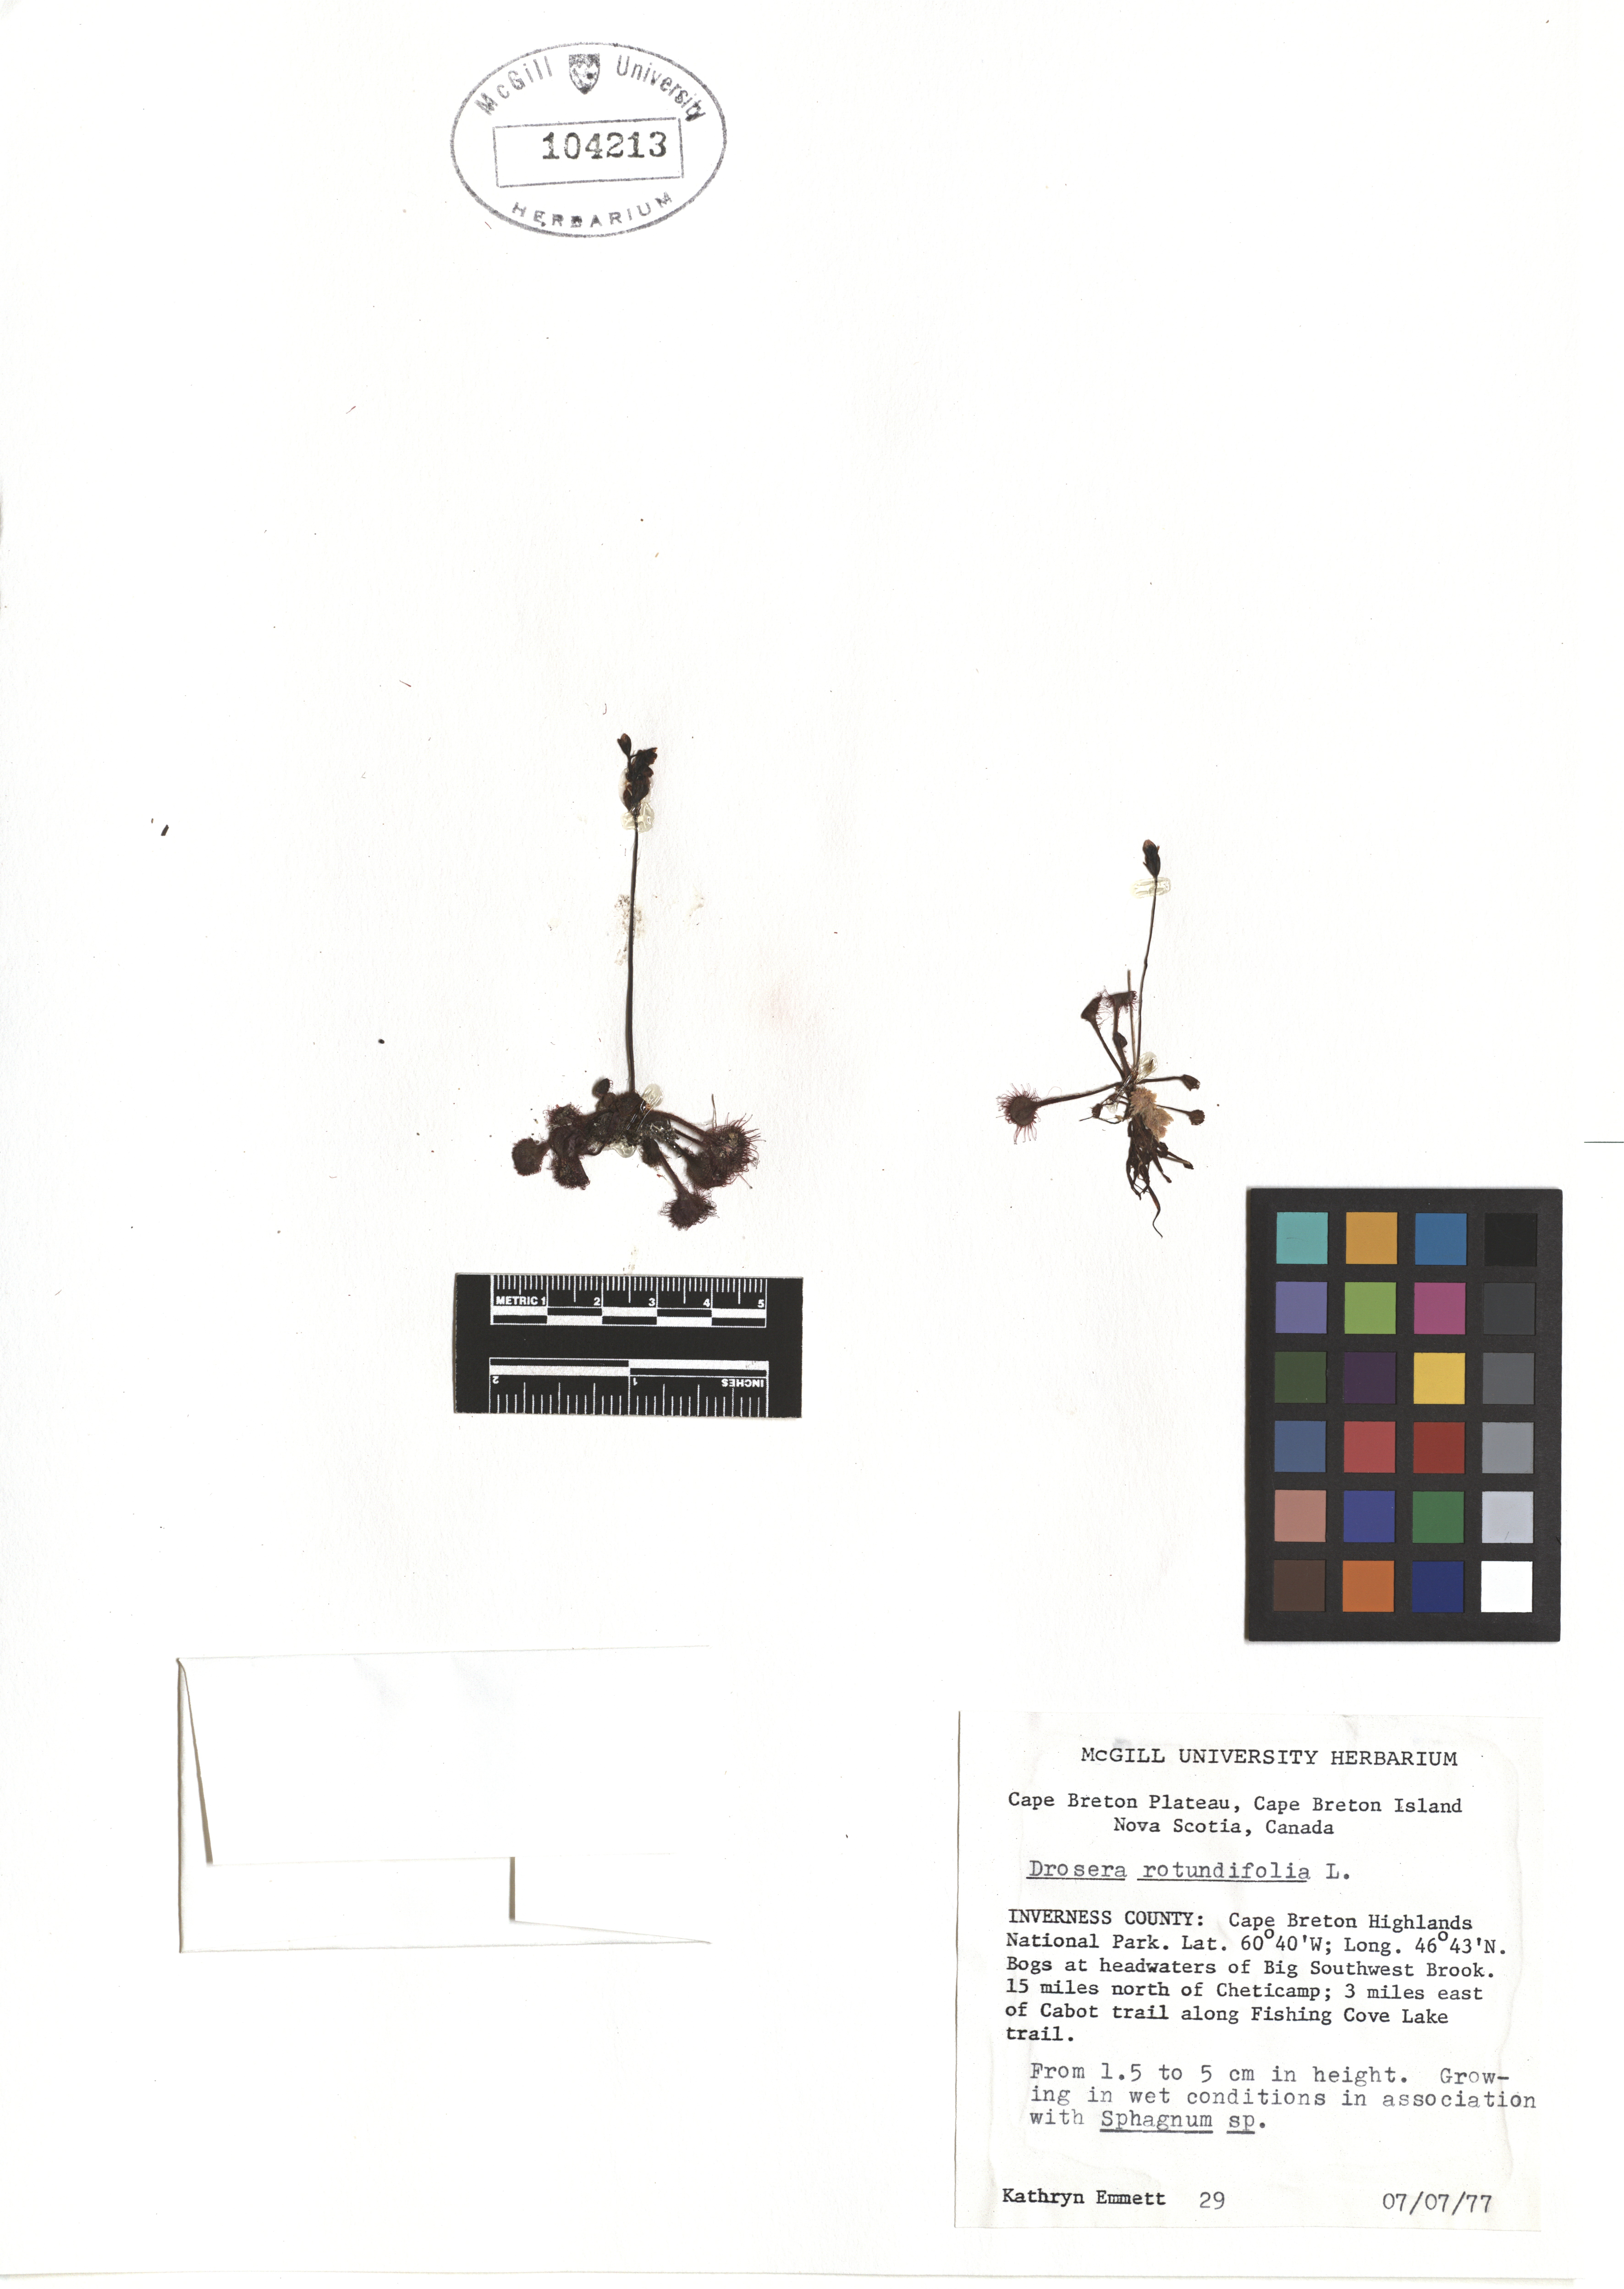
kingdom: Plantae
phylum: Tracheophyta
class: Magnoliopsida
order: Caryophyllales
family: Droseraceae
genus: Drosera
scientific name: Drosera rotundifolia
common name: Round-leaved sundew
